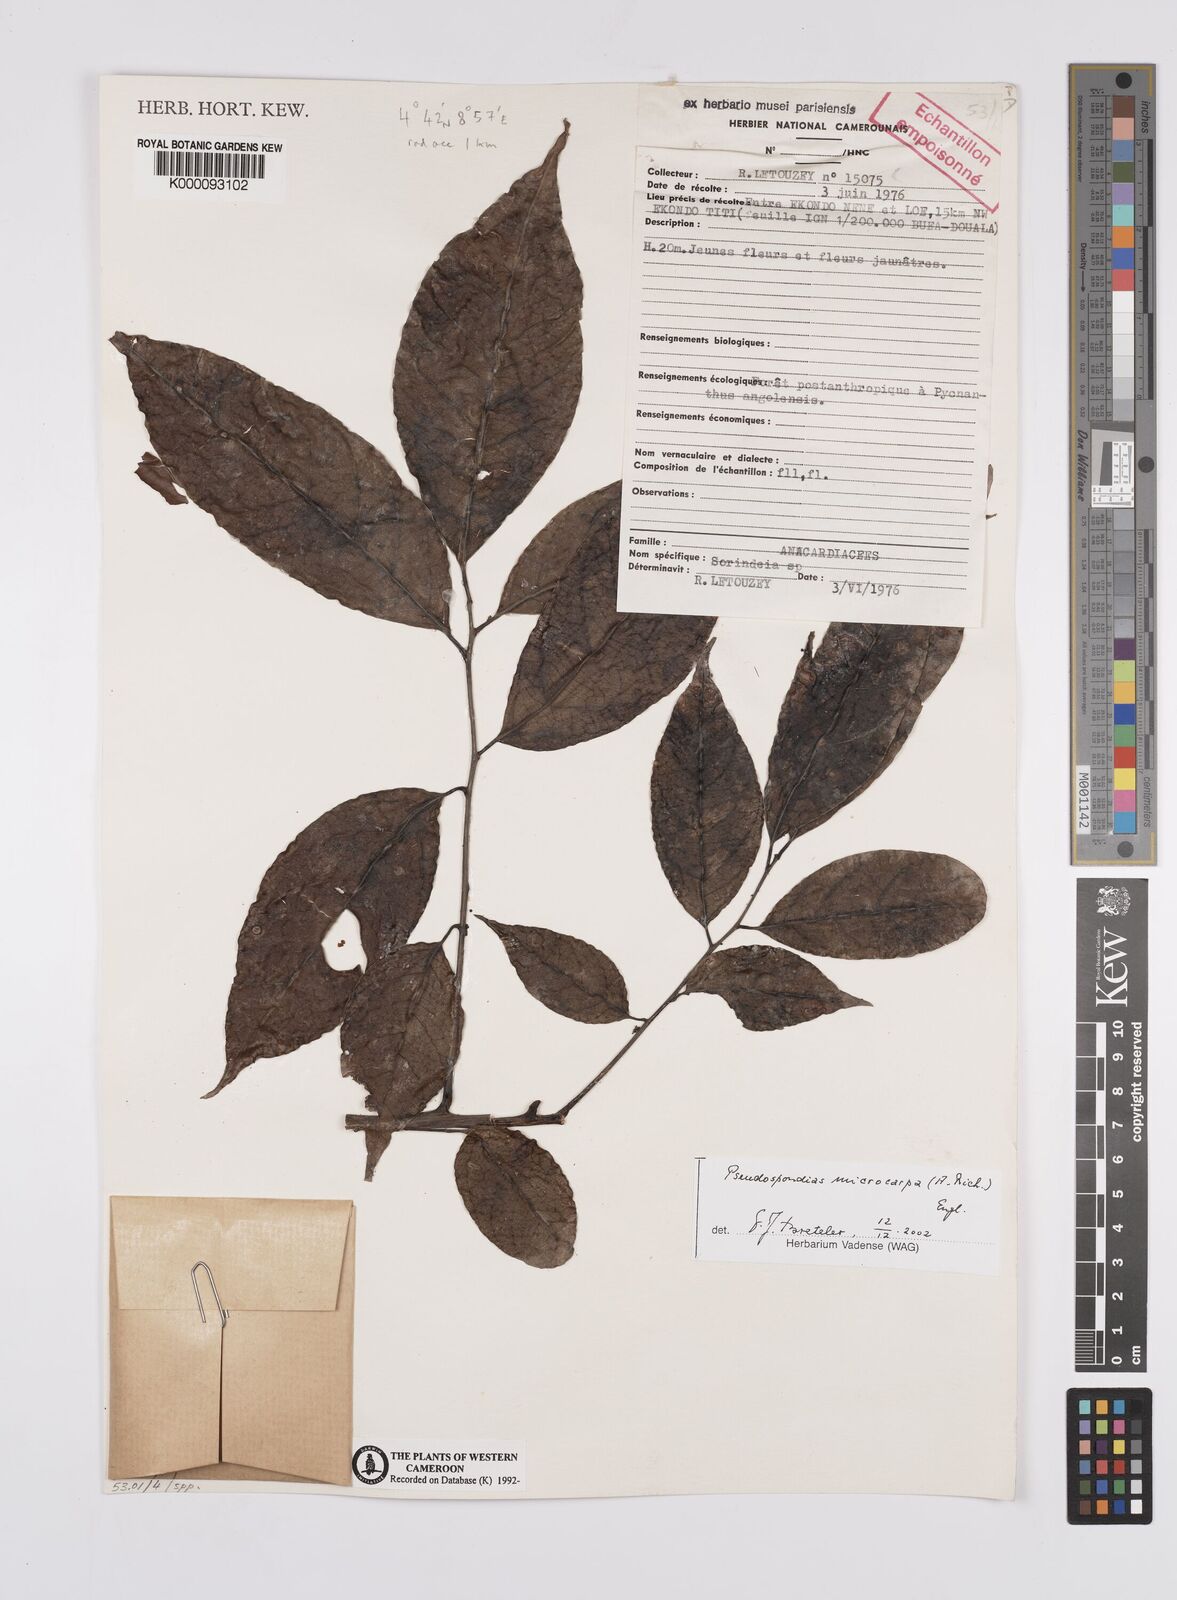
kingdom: Plantae
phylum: Tracheophyta
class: Magnoliopsida
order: Sapindales
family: Anacardiaceae
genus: Pseudospondias
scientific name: Pseudospondias microcarpa
